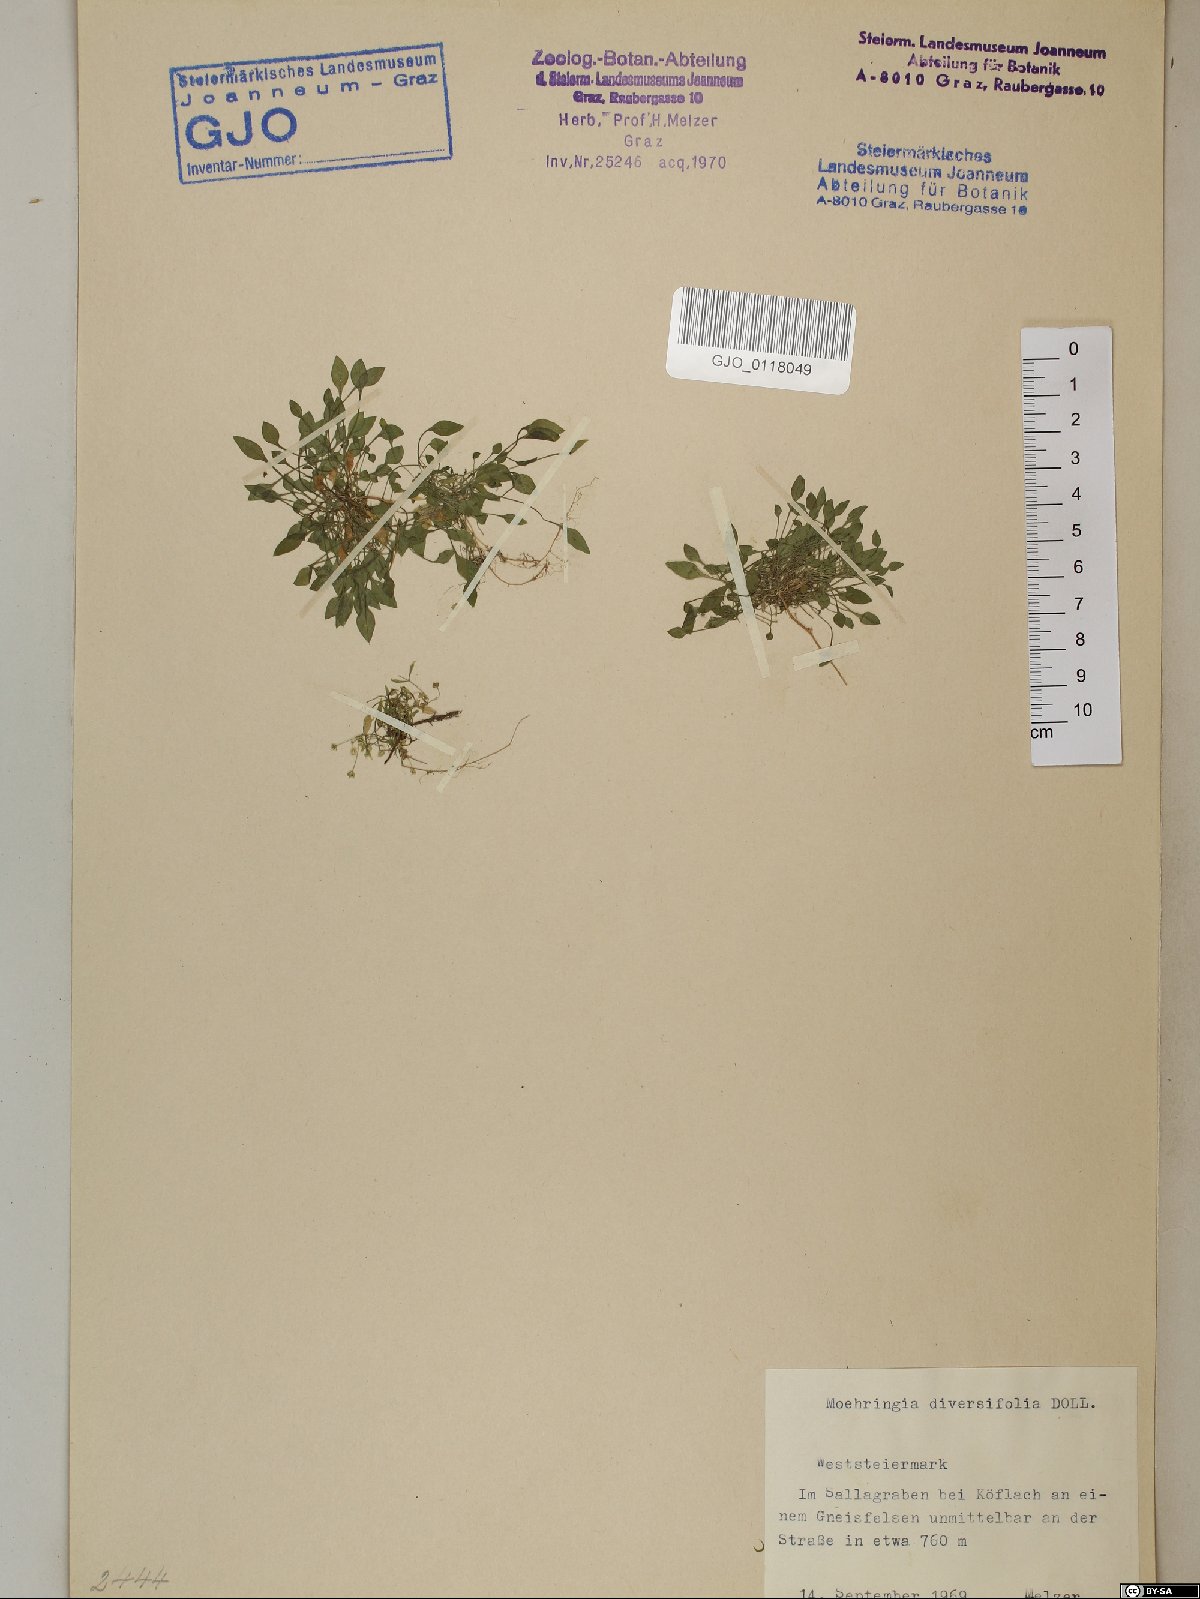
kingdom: Plantae
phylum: Tracheophyta
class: Magnoliopsida
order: Caryophyllales
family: Caryophyllaceae
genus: Moehringia
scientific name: Moehringia diversifolia
